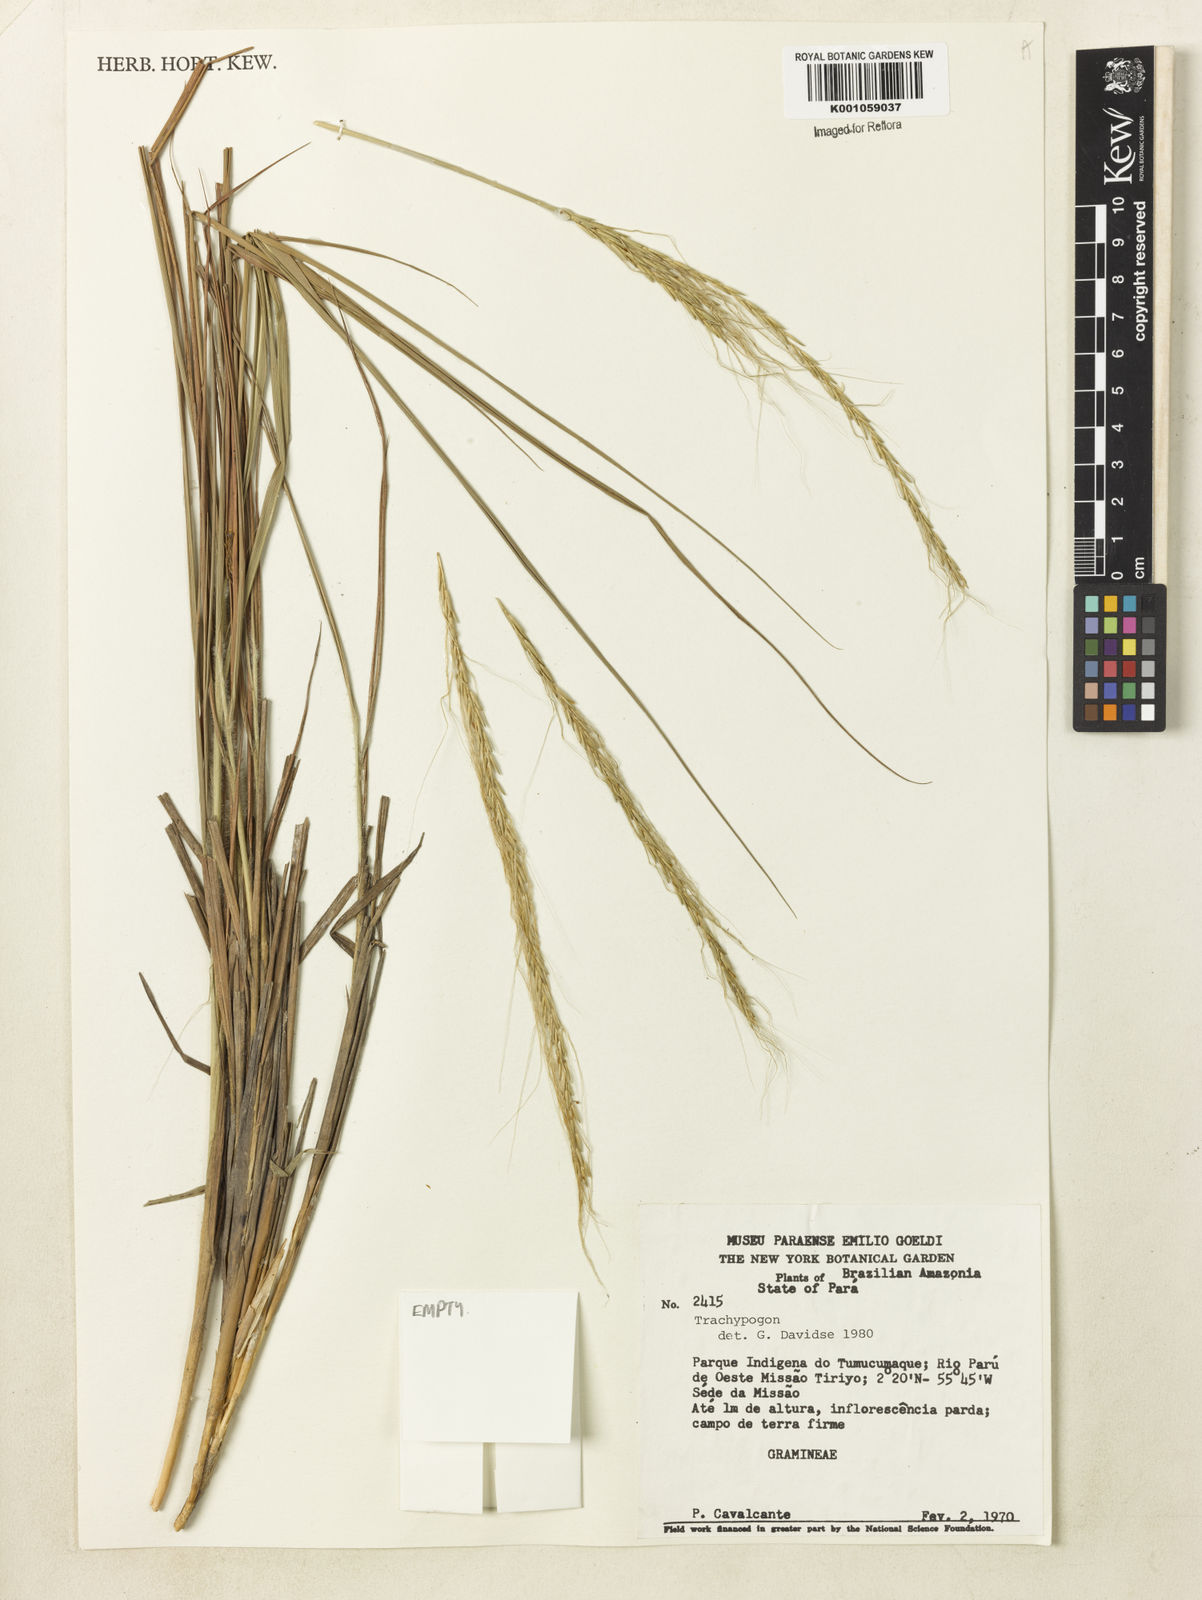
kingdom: Plantae
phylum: Tracheophyta
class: Liliopsida
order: Poales
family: Poaceae
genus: Trachypogon
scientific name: Trachypogon spicatus
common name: Crinkle-awn
